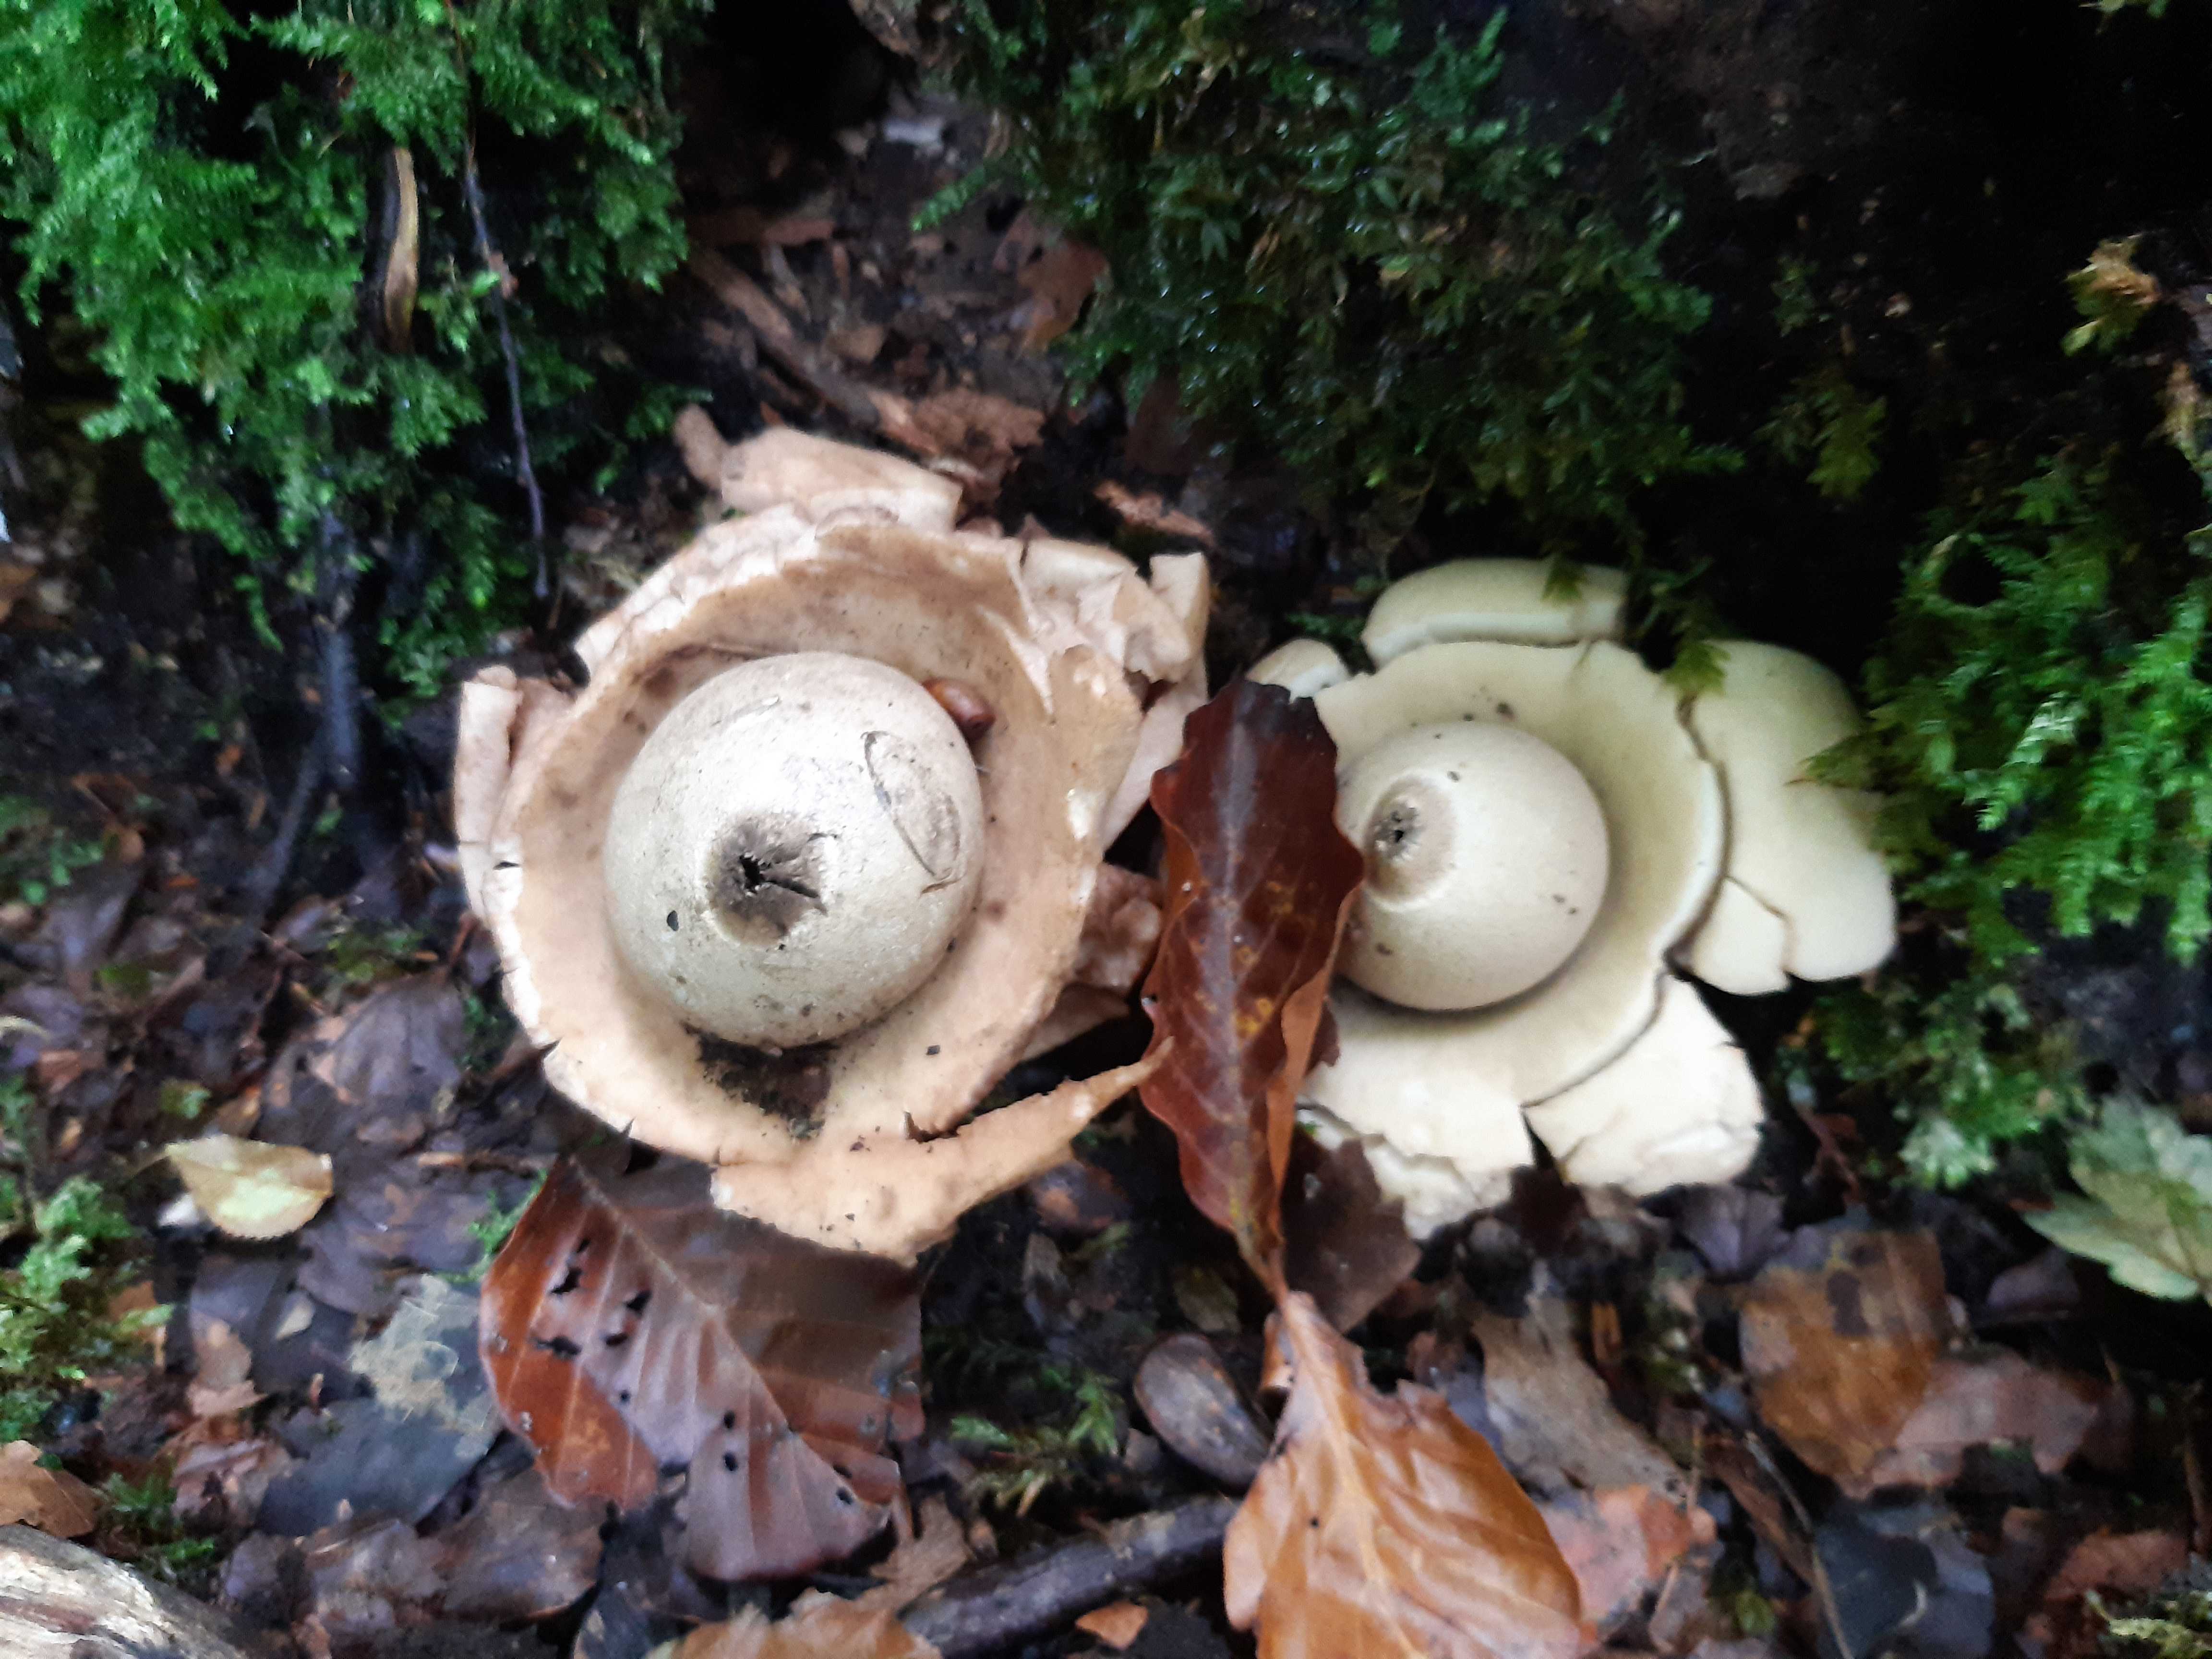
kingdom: Fungi
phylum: Basidiomycota
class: Agaricomycetes
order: Geastrales
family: Geastraceae
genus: Geastrum
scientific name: Geastrum michelianum
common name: kødet stjernebold
